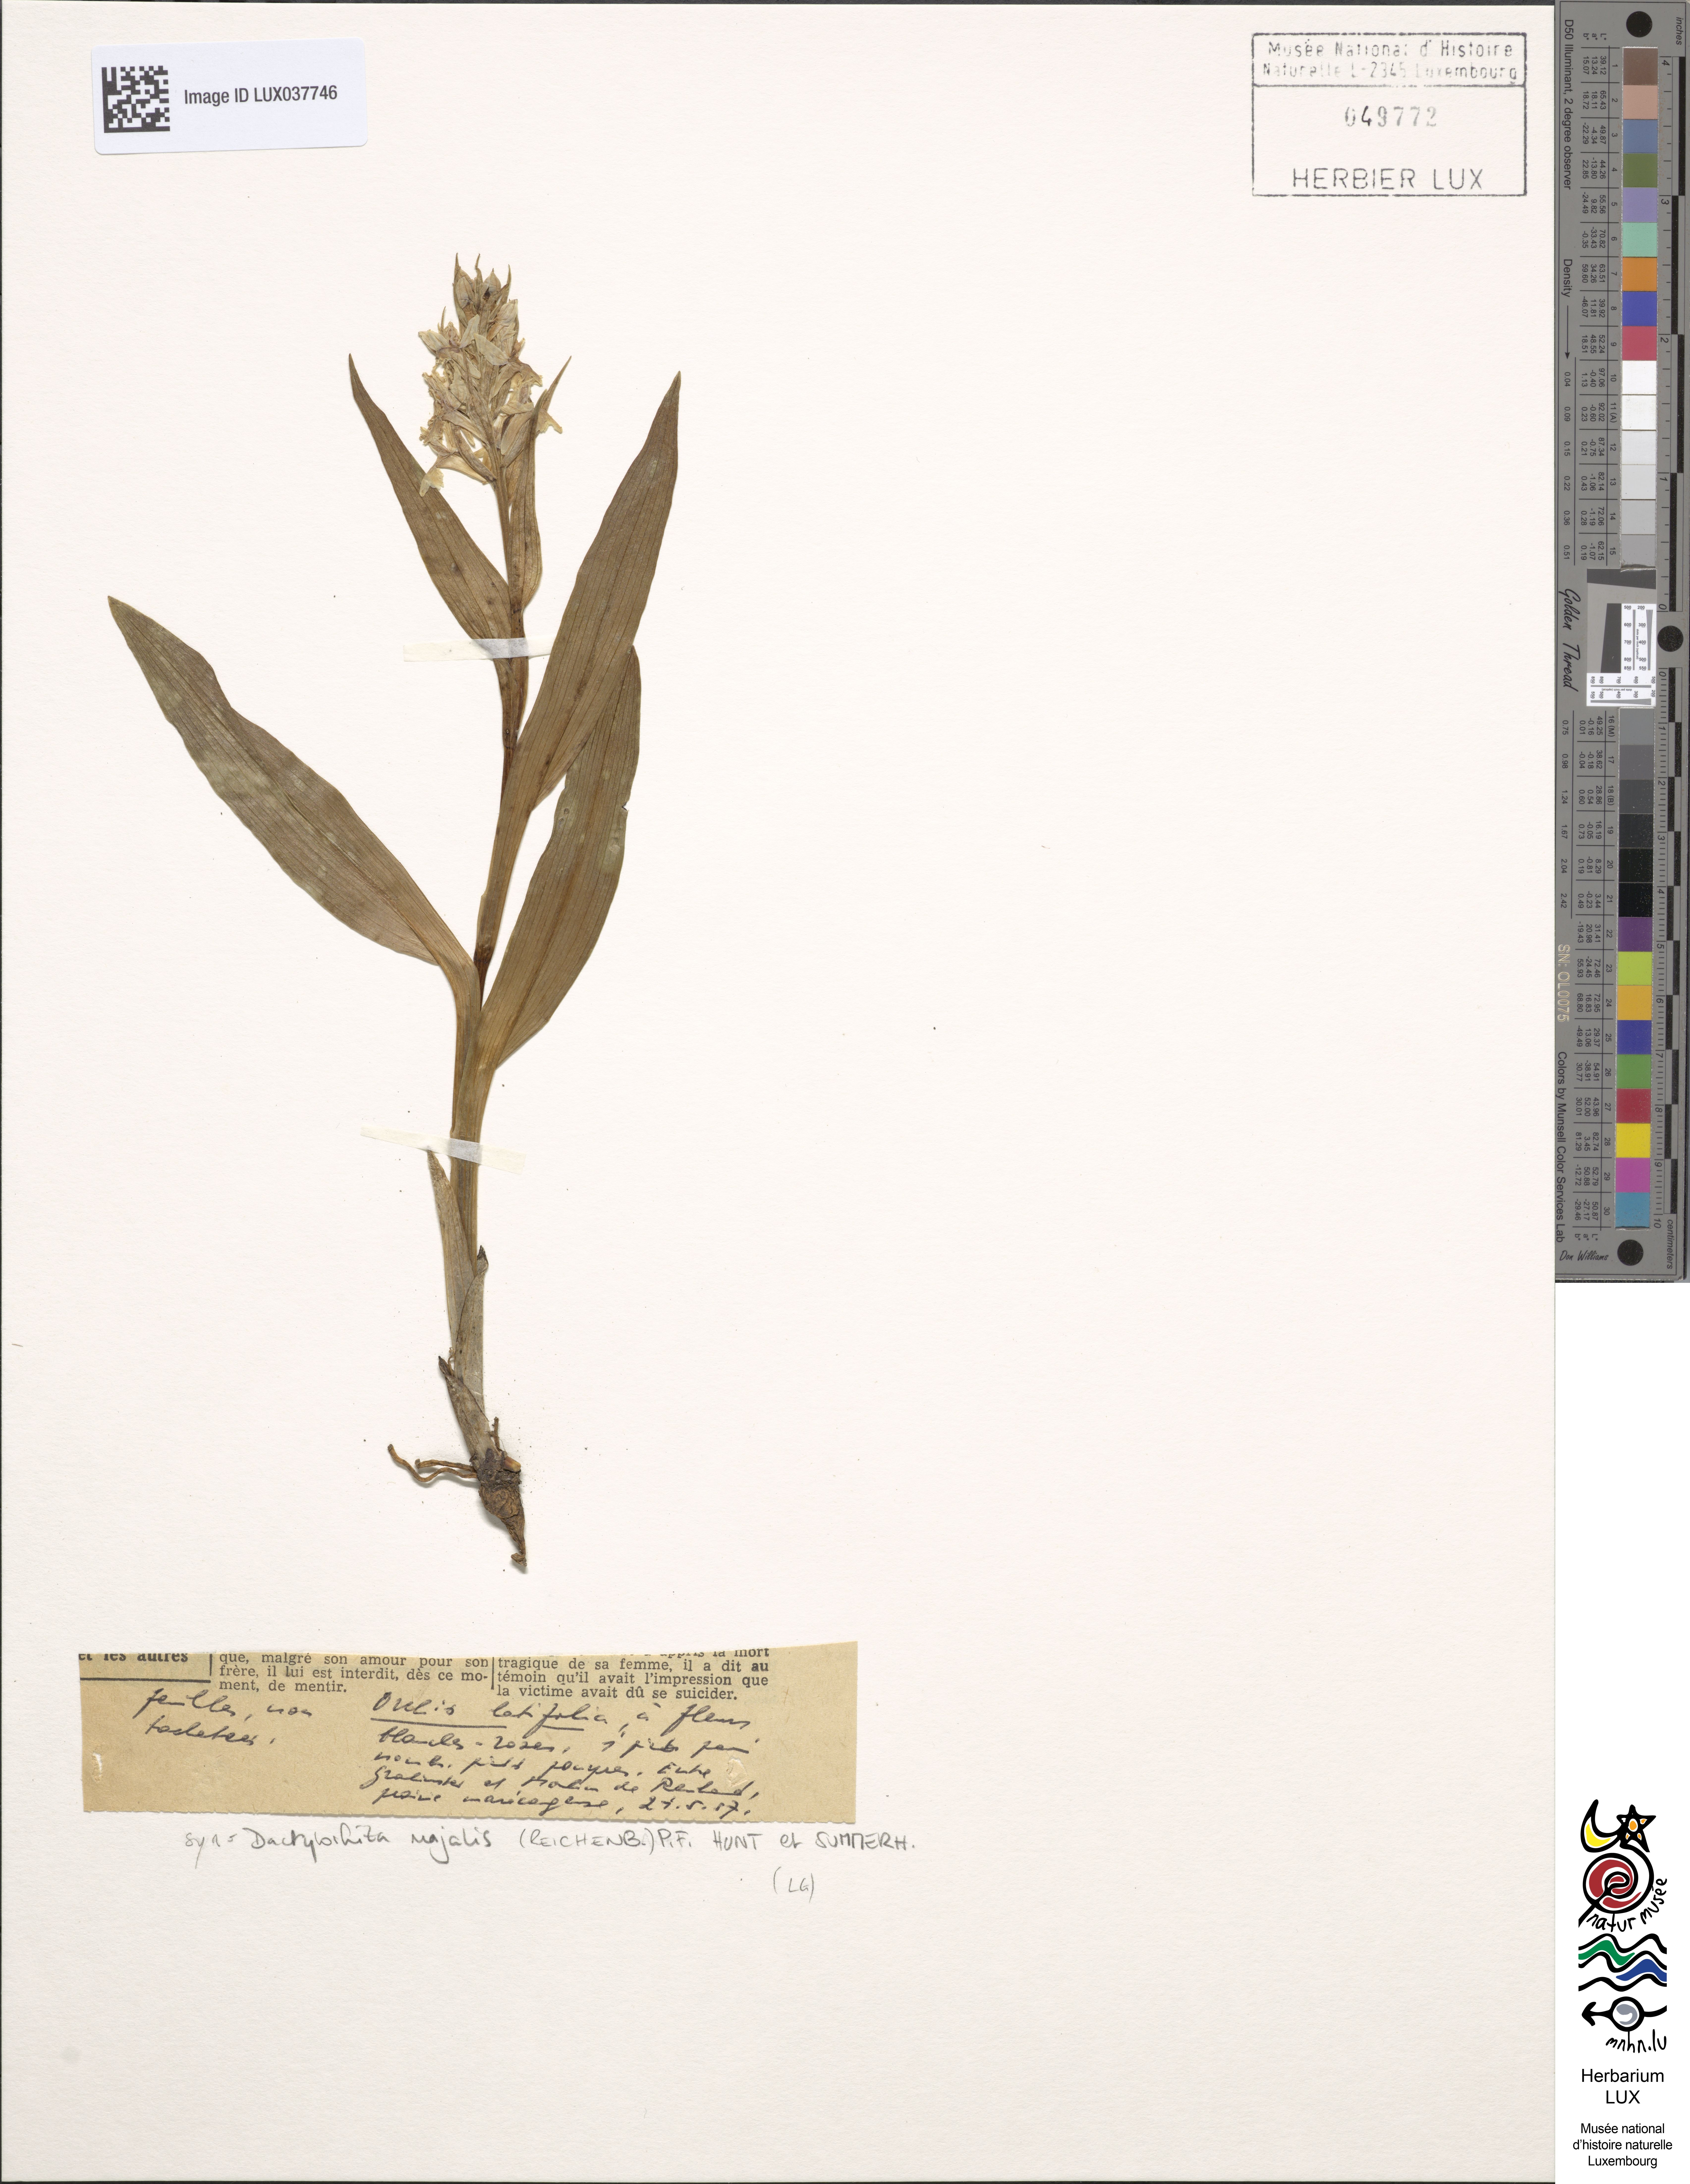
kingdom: Plantae
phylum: Tracheophyta
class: Liliopsida
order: Asparagales
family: Orchidaceae
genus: Dactylorhiza
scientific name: Dactylorhiza incarnata
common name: Early marsh-orchid
